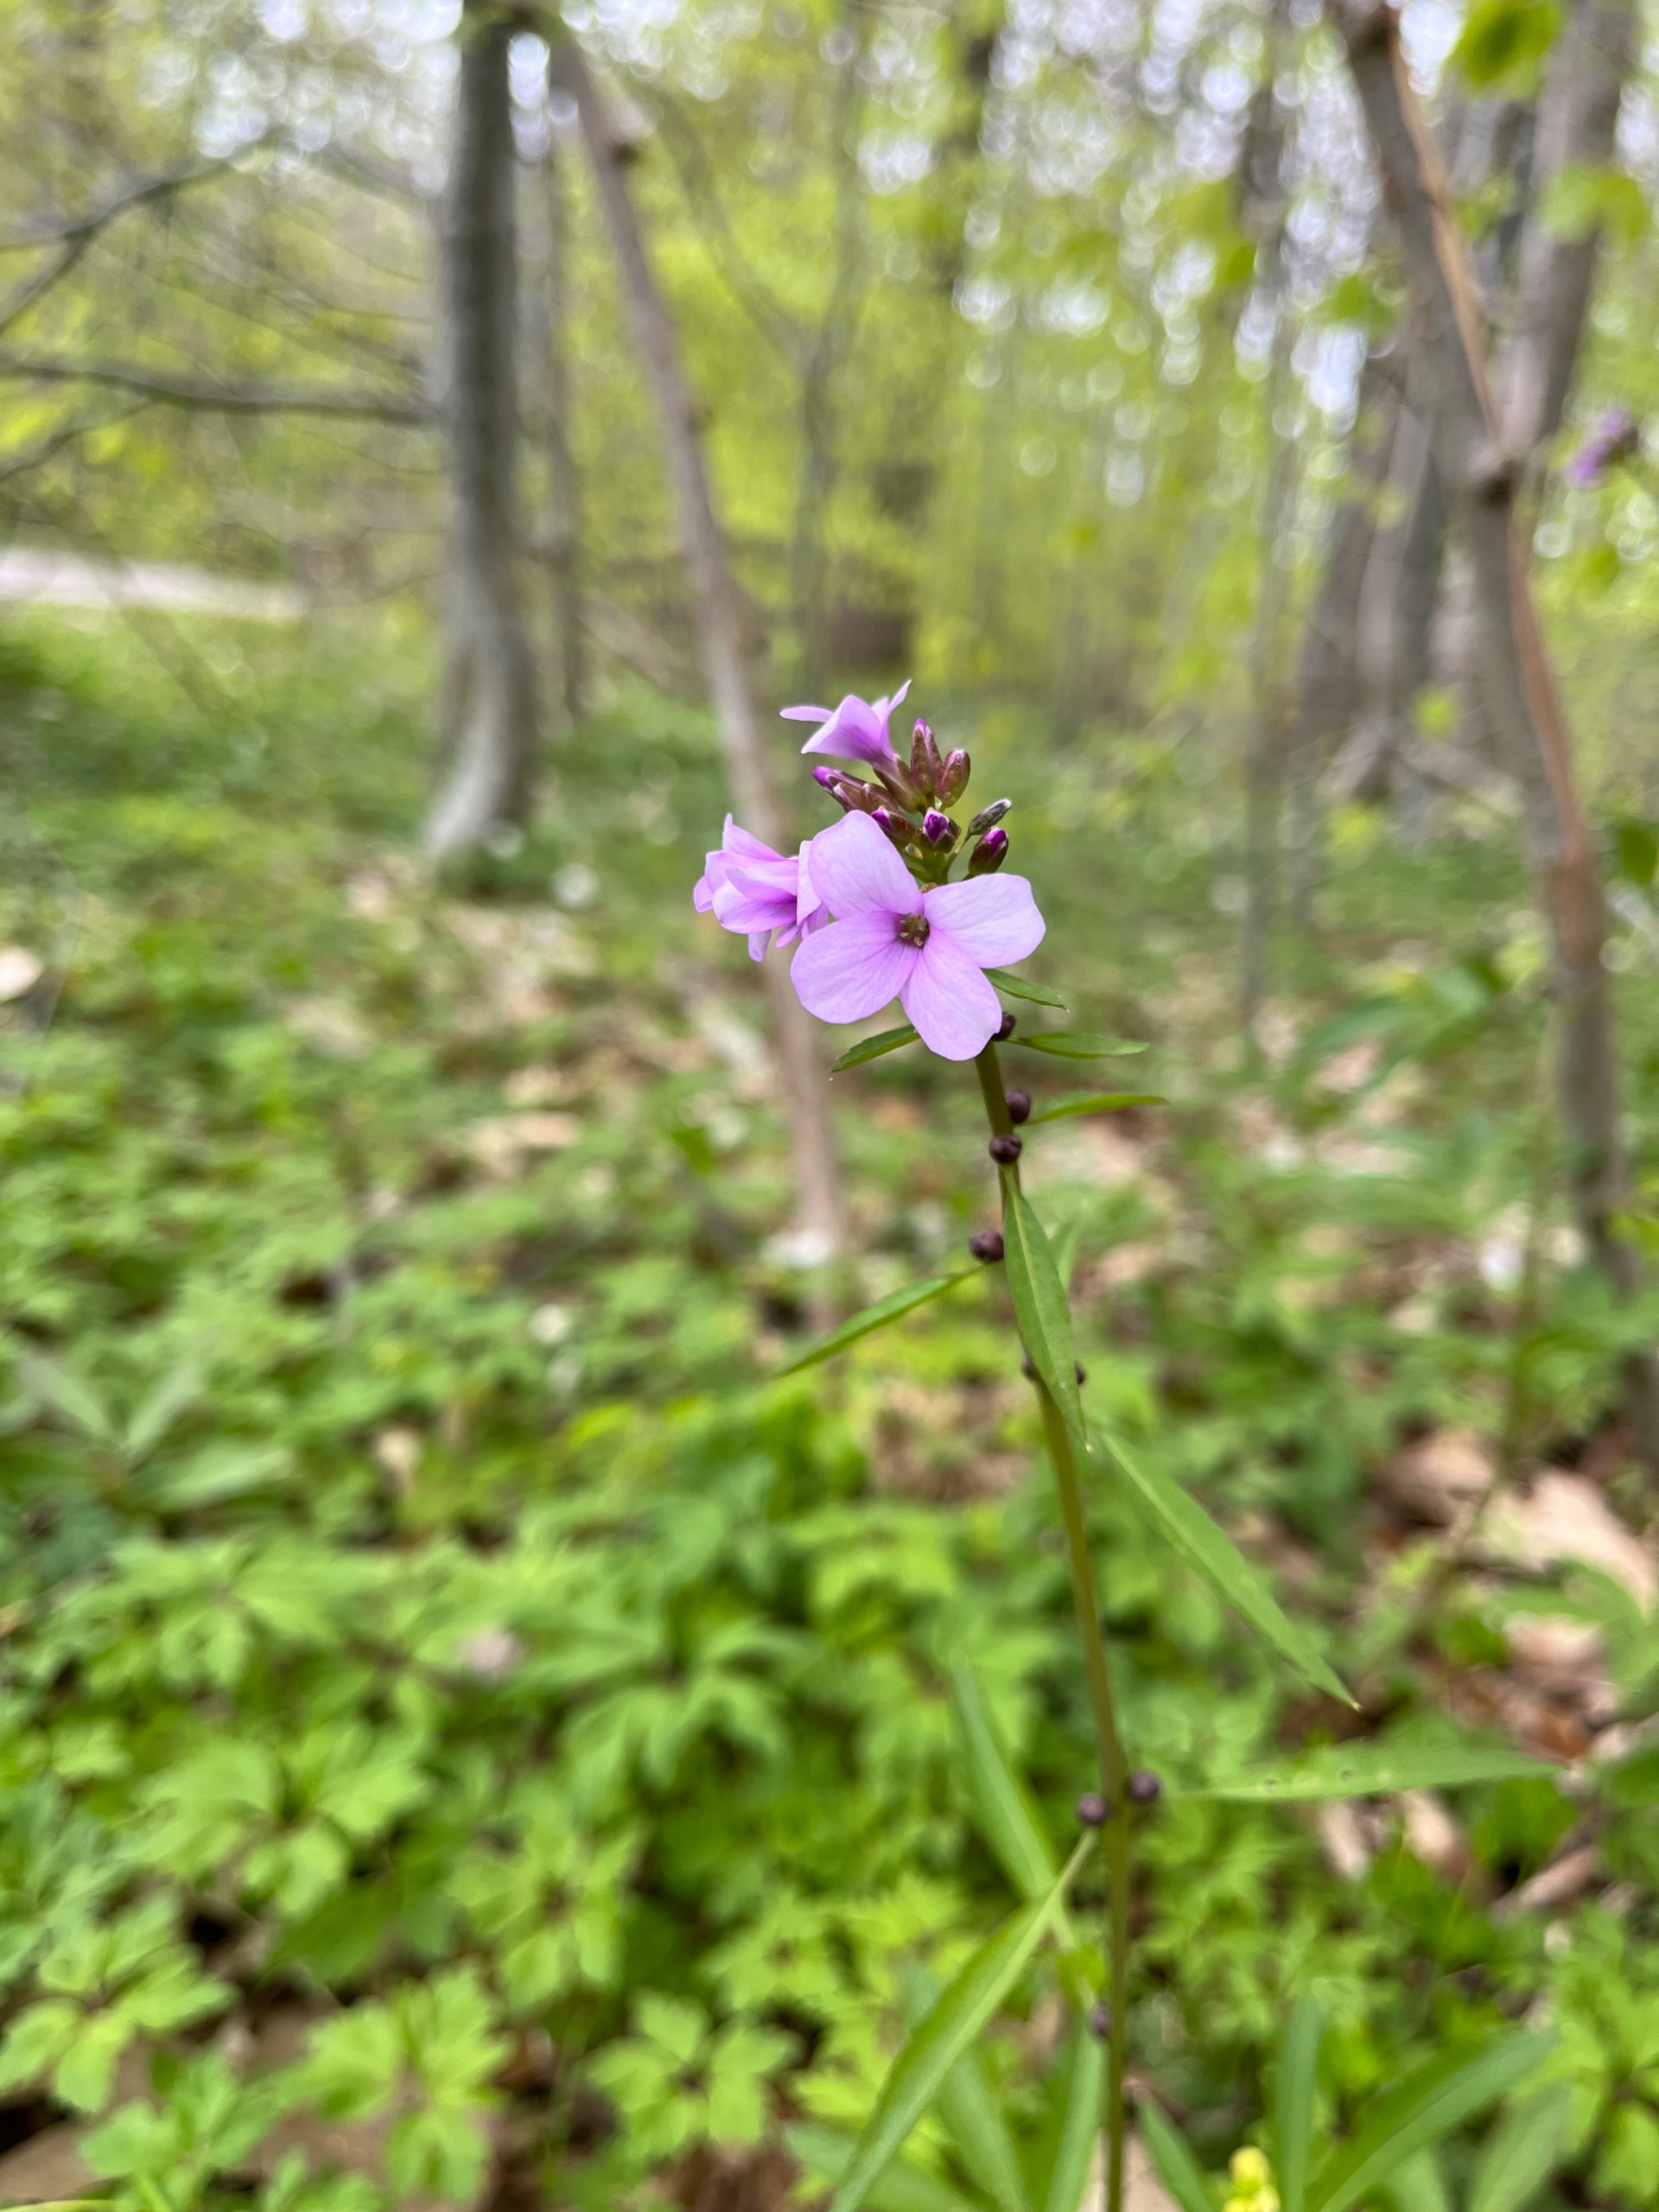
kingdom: Plantae
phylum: Tracheophyta
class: Magnoliopsida
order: Brassicales
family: Brassicaceae
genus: Cardamine
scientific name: Cardamine bulbifera
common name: Tandrod
